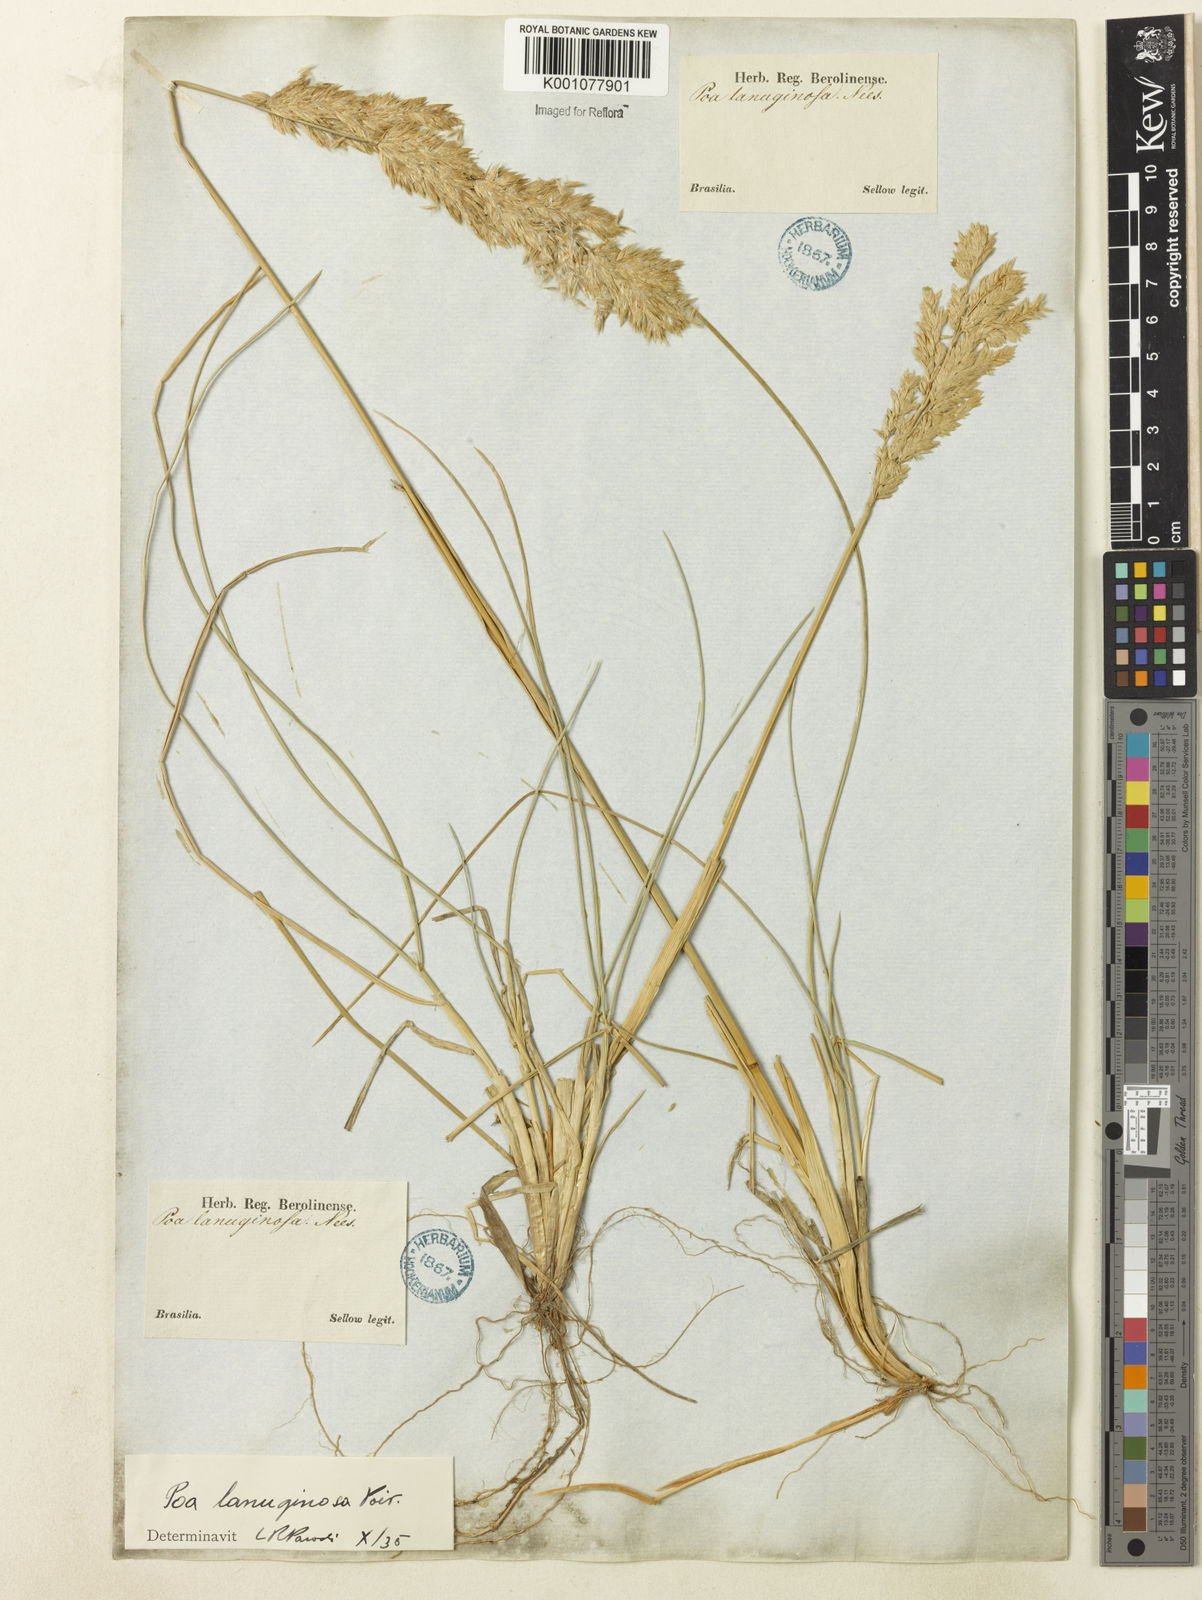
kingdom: Plantae
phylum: Tracheophyta
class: Liliopsida
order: Poales
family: Poaceae
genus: Poa
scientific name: Poa lanuginosa
